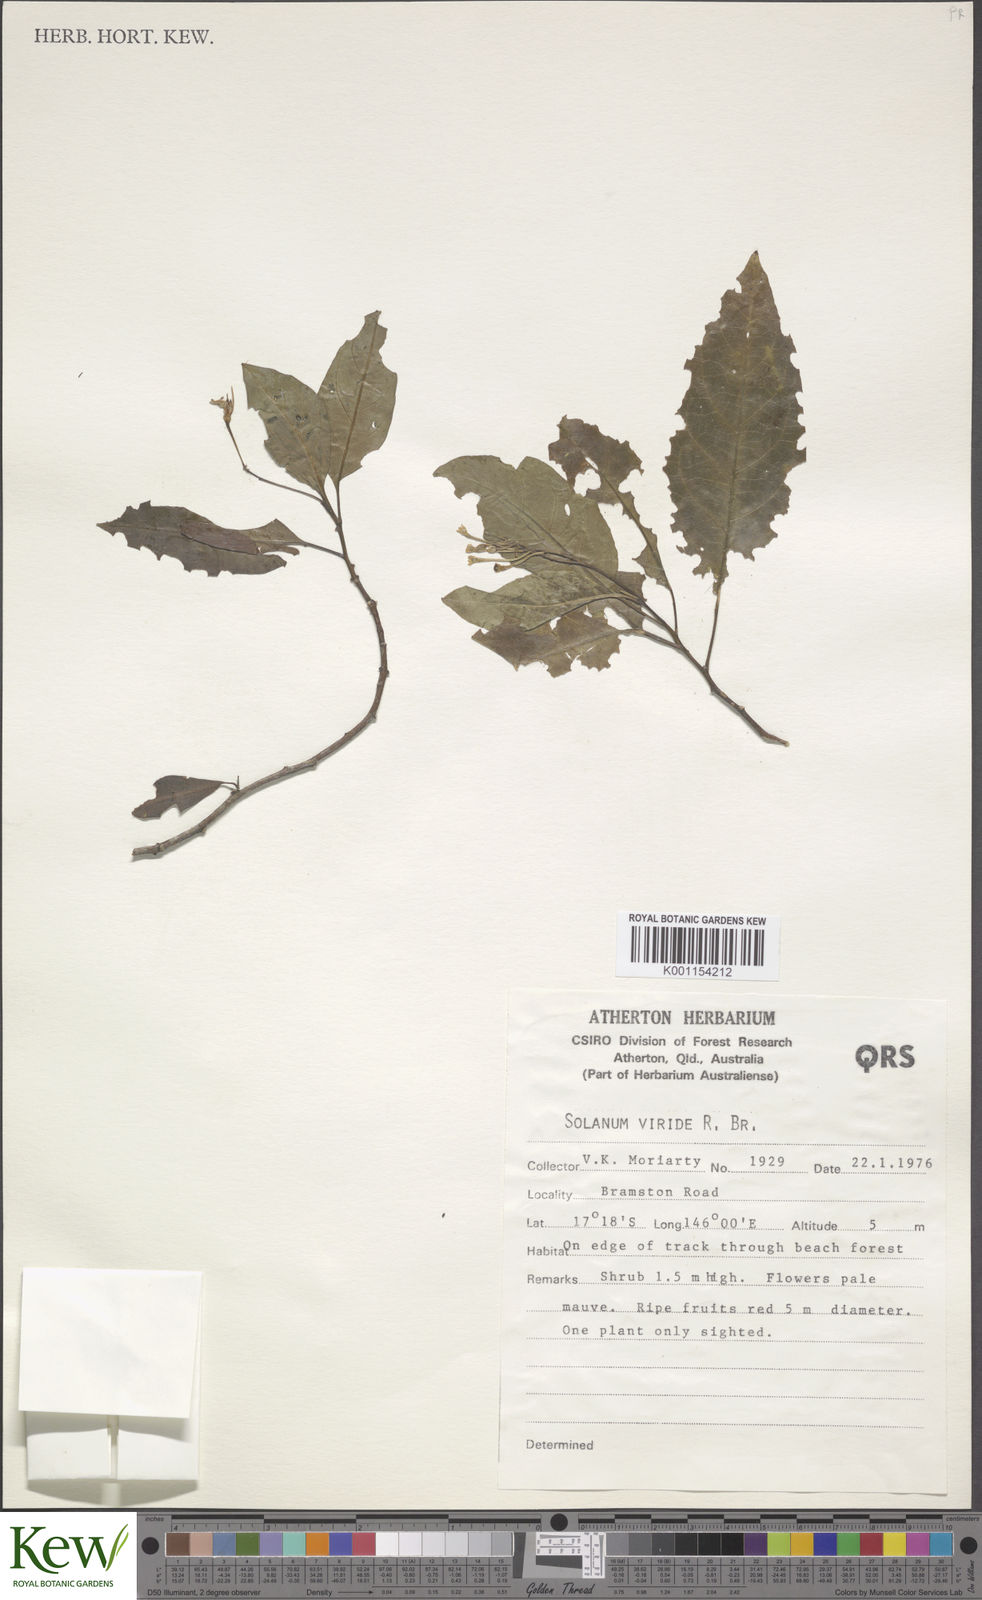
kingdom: Plantae
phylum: Tracheophyta
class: Magnoliopsida
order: Solanales
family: Solanaceae
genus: Solanum
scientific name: Solanum viridifolium
